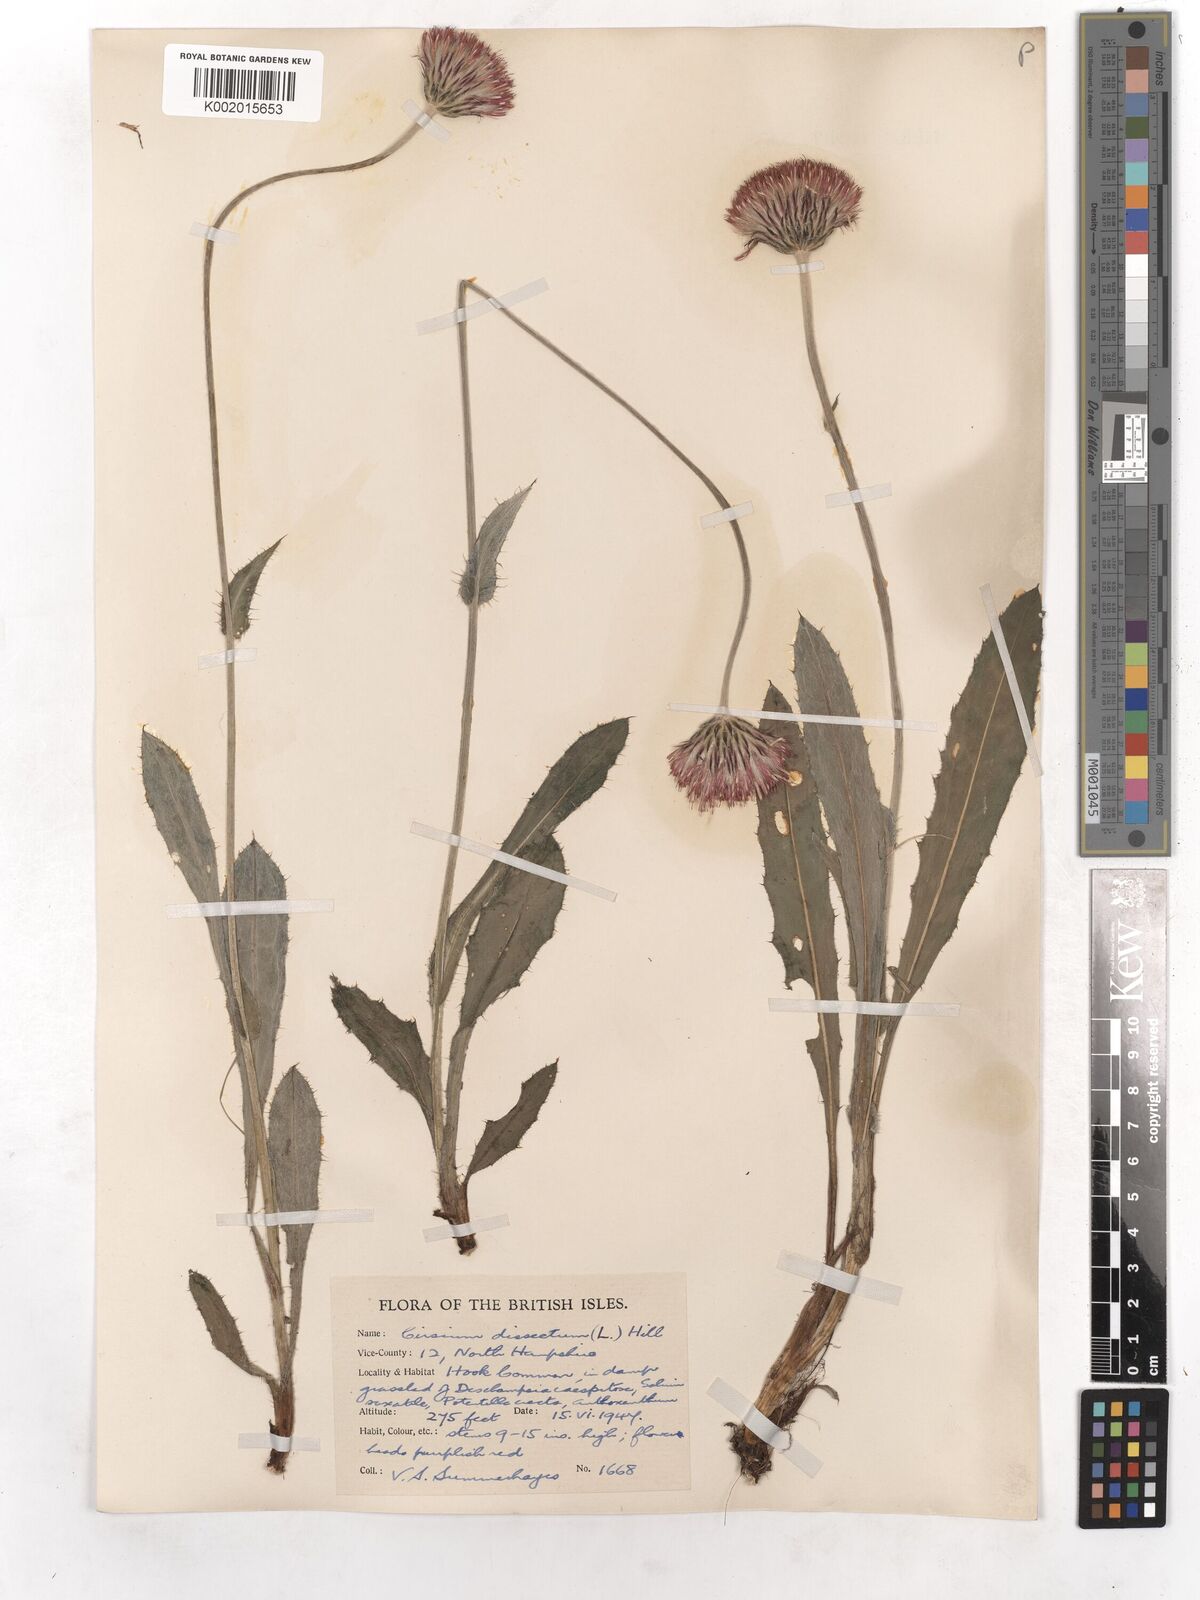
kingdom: Plantae
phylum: Tracheophyta
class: Magnoliopsida
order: Asterales
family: Asteraceae
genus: Cirsium
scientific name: Cirsium dissectum
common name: Meadow thistle
